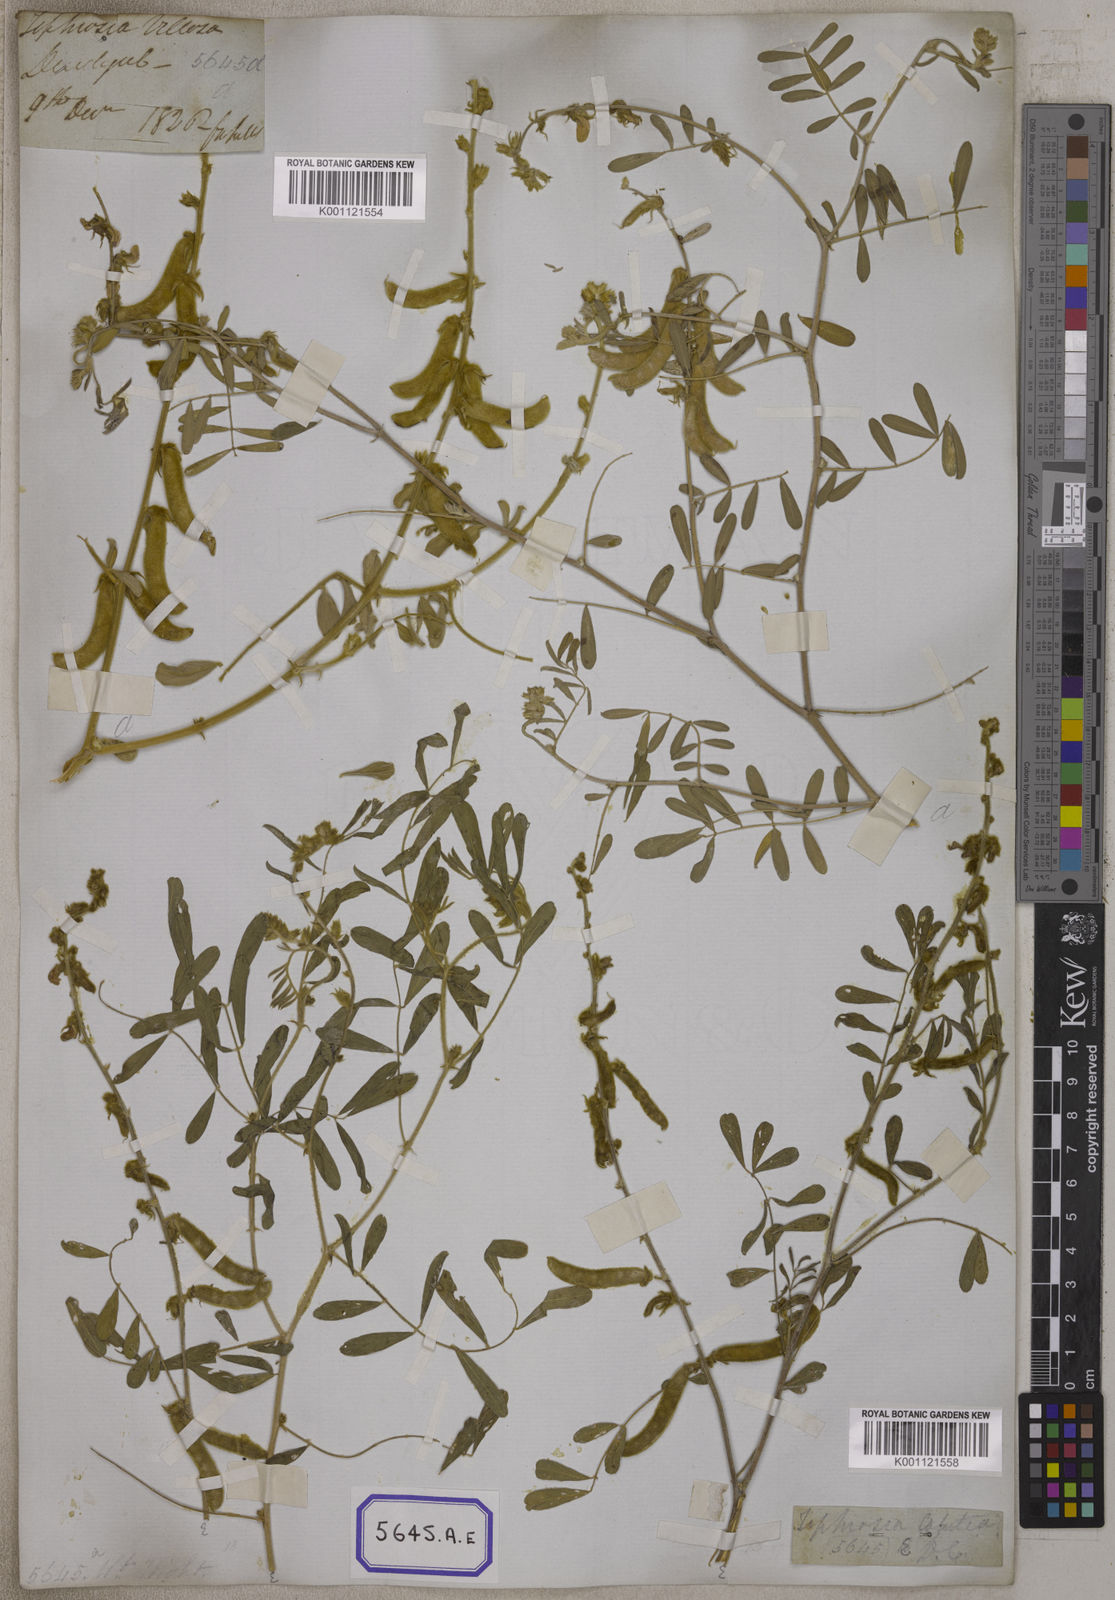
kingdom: Plantae
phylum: Tracheophyta
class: Magnoliopsida
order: Fabales
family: Fabaceae
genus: Tephrosia
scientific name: Tephrosia villosa
